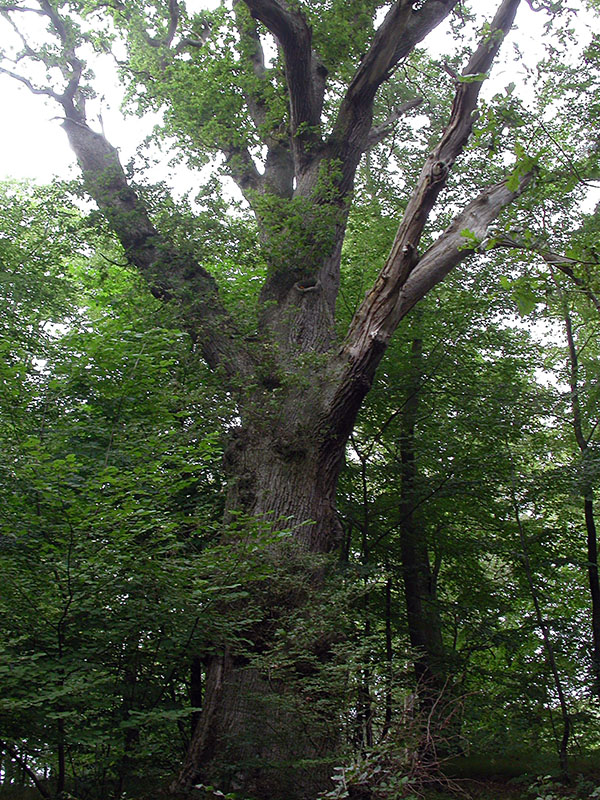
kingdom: Fungi
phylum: Basidiomycota
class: Agaricomycetes
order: Polyporales
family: Phanerochaetaceae
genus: Hapalopilus
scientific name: Hapalopilus croceus
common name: safrangul pragtporesvamp
